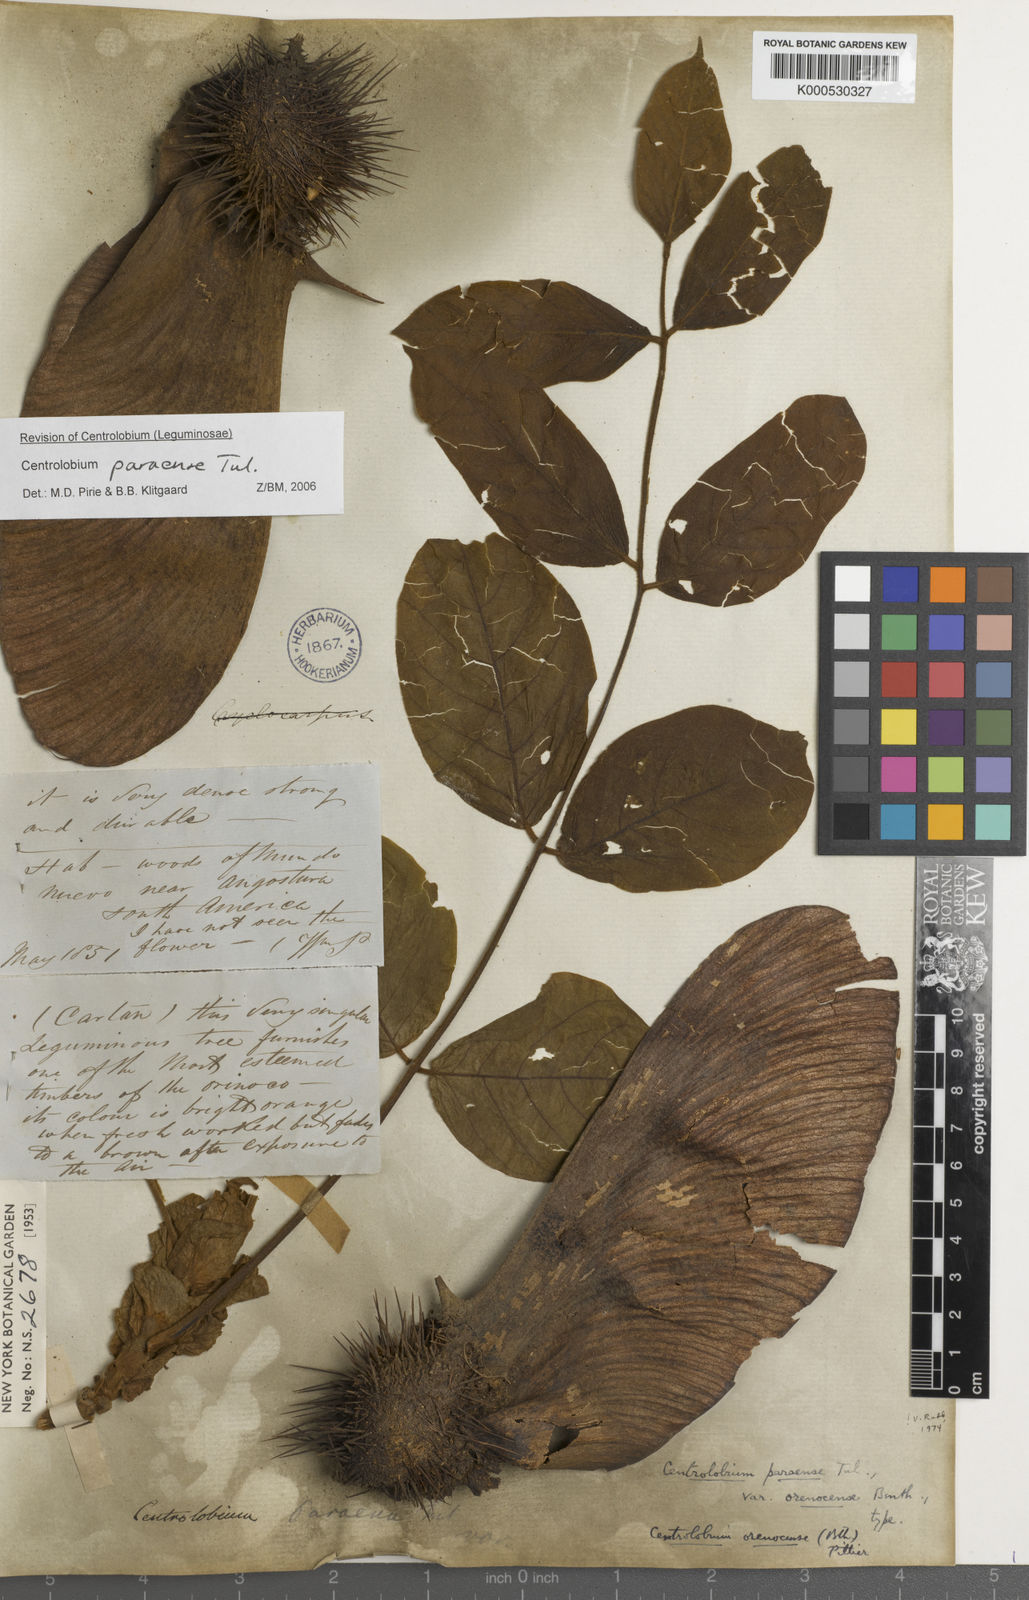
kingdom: Plantae
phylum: Tracheophyta
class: Magnoliopsida
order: Fabales
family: Fabaceae
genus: Centrolobium
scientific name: Centrolobium paraense
